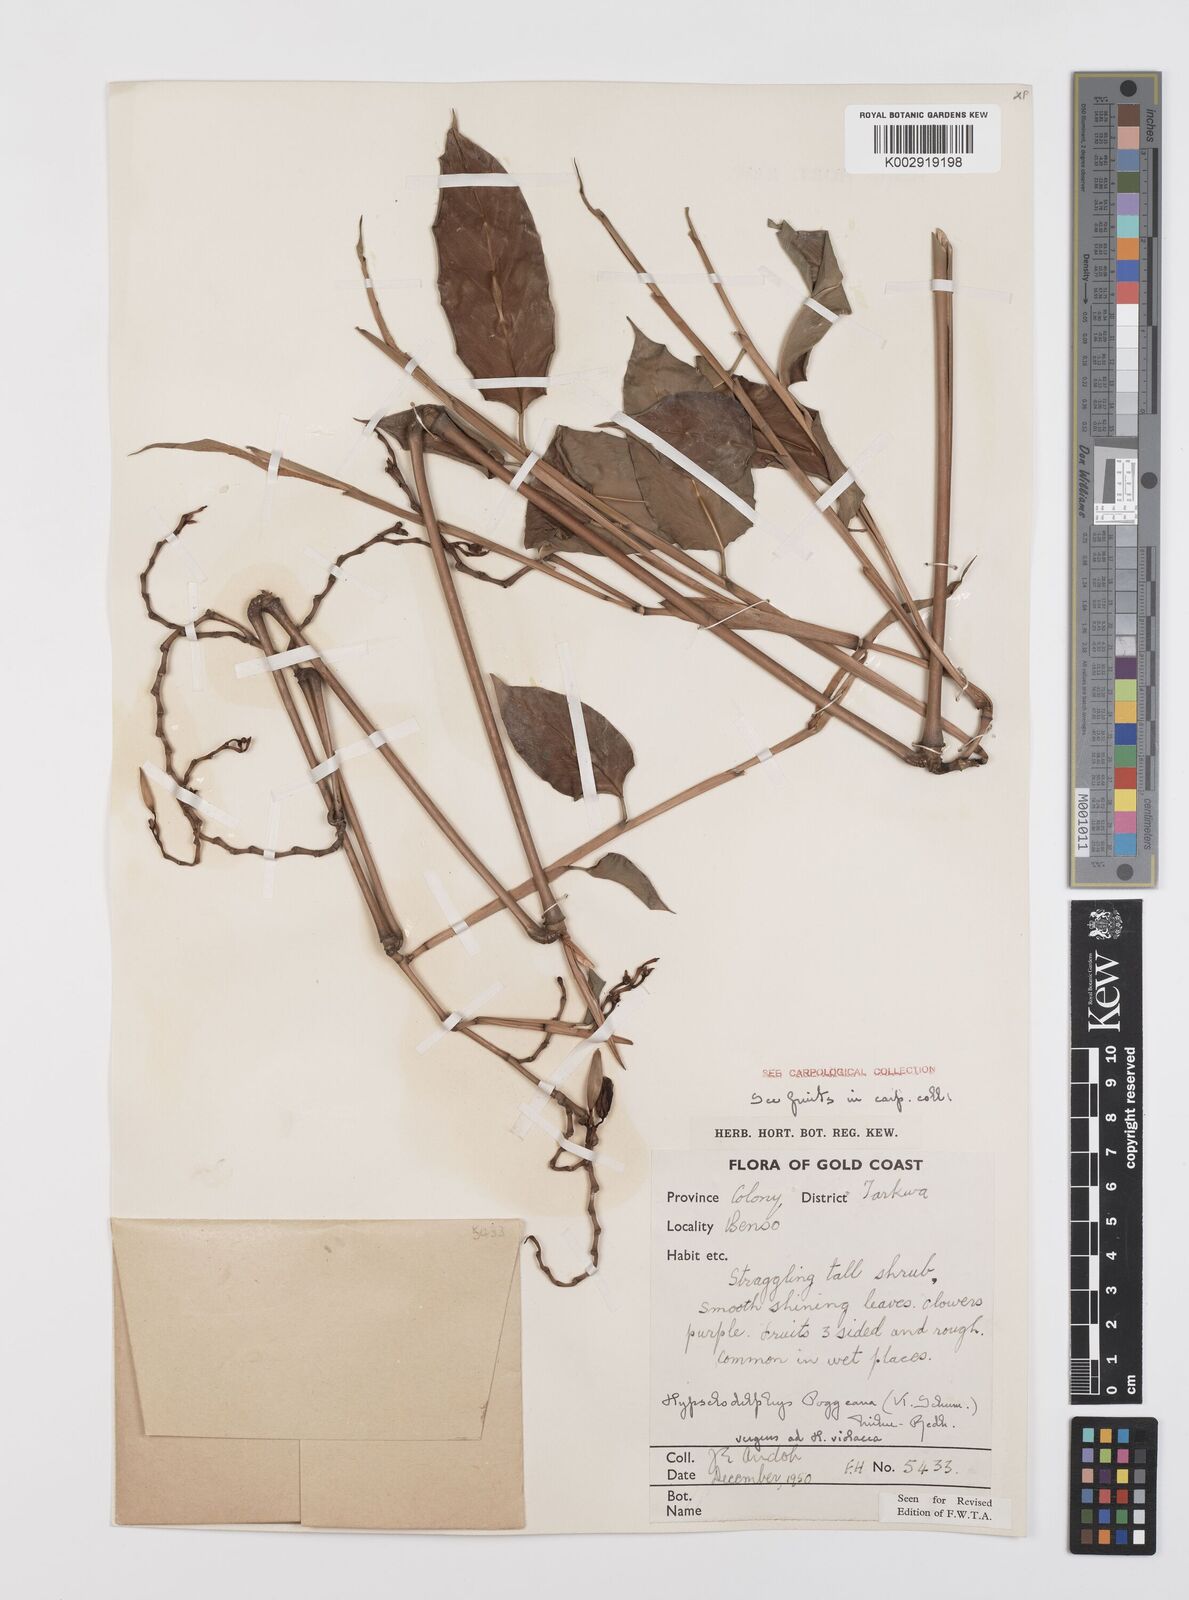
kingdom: Plantae
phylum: Tracheophyta
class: Liliopsida
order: Zingiberales
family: Marantaceae
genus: Hypselodelphys
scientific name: Hypselodelphys poggeana
